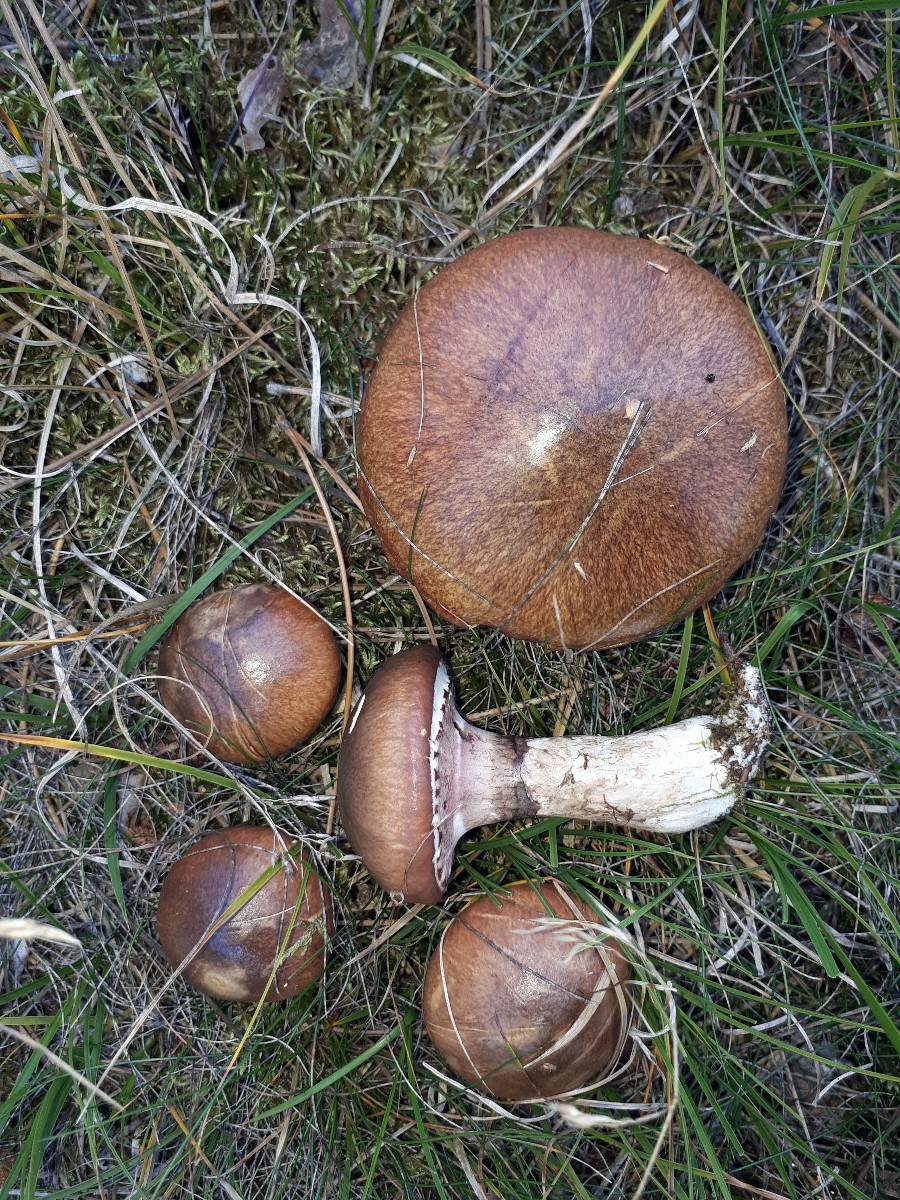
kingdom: Fungi
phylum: Basidiomycota
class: Agaricomycetes
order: Boletales
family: Suillaceae
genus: Suillus
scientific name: Suillus luteus
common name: brungul slimrørhat
